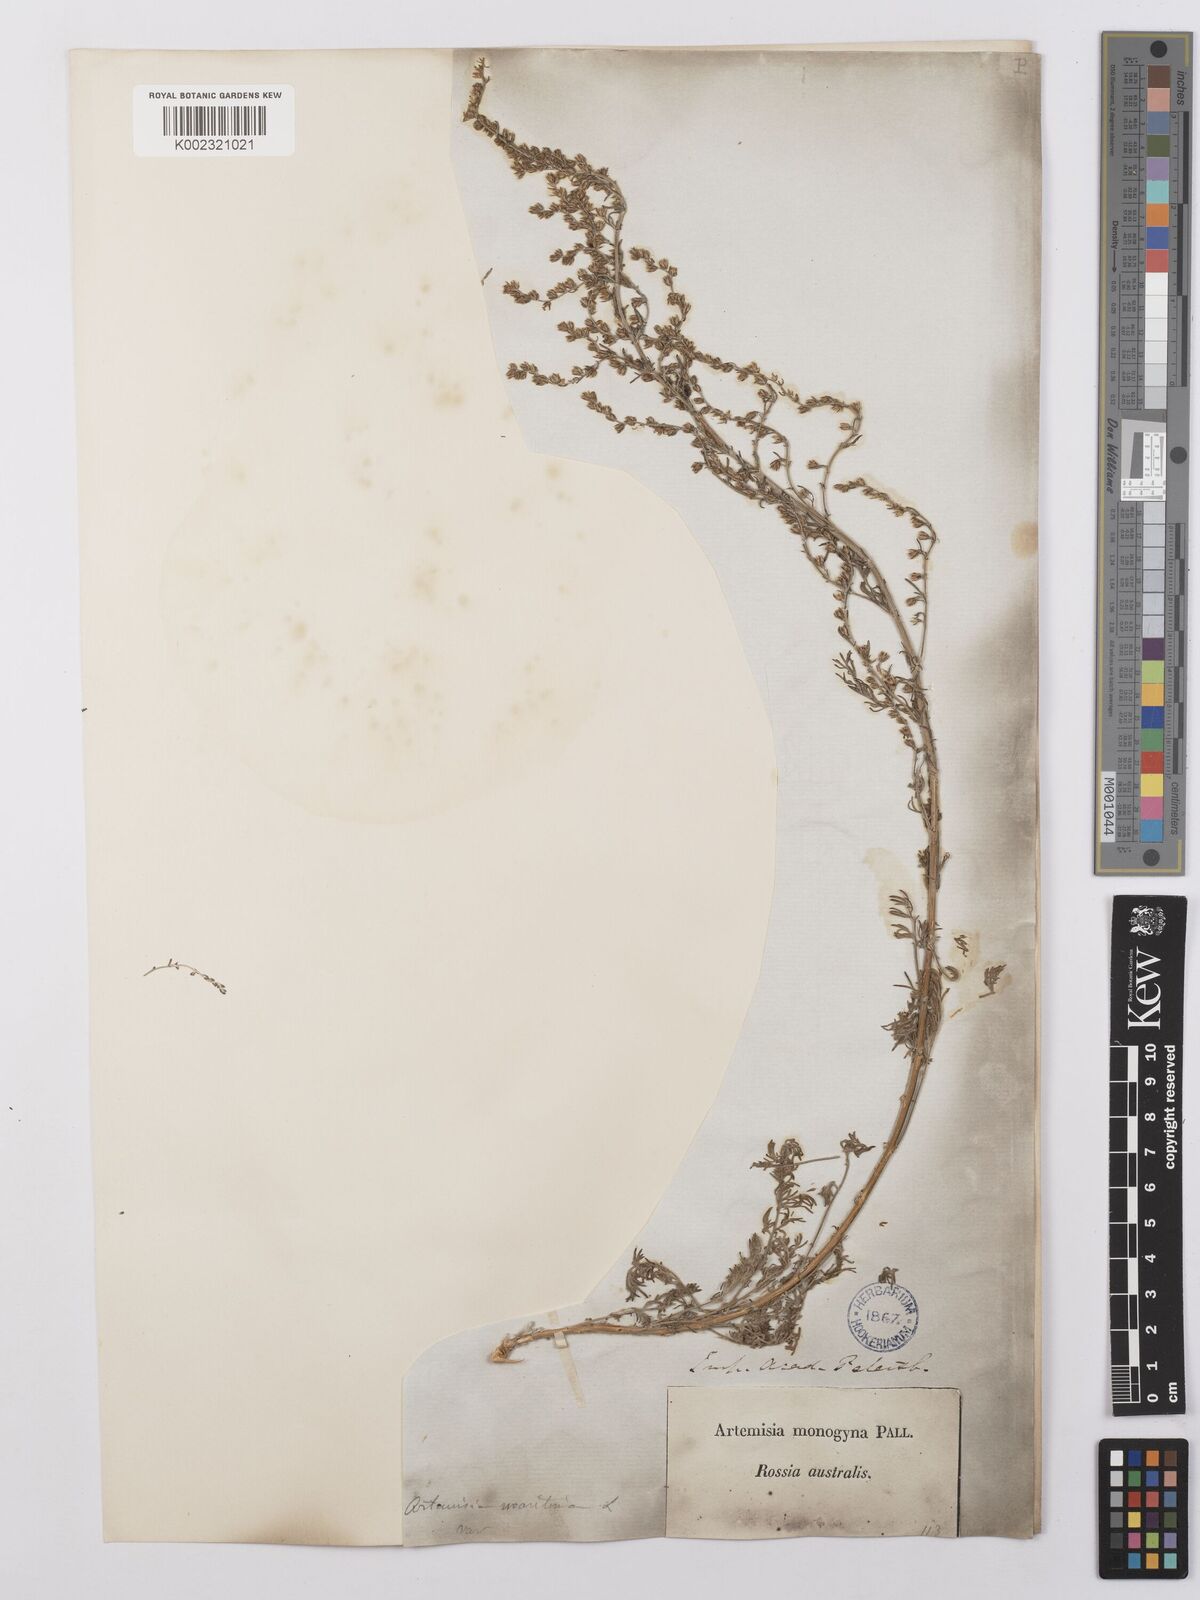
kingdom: Plantae
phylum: Tracheophyta
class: Magnoliopsida
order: Asterales
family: Asteraceae
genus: Artemisia
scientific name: Artemisia santonicum
